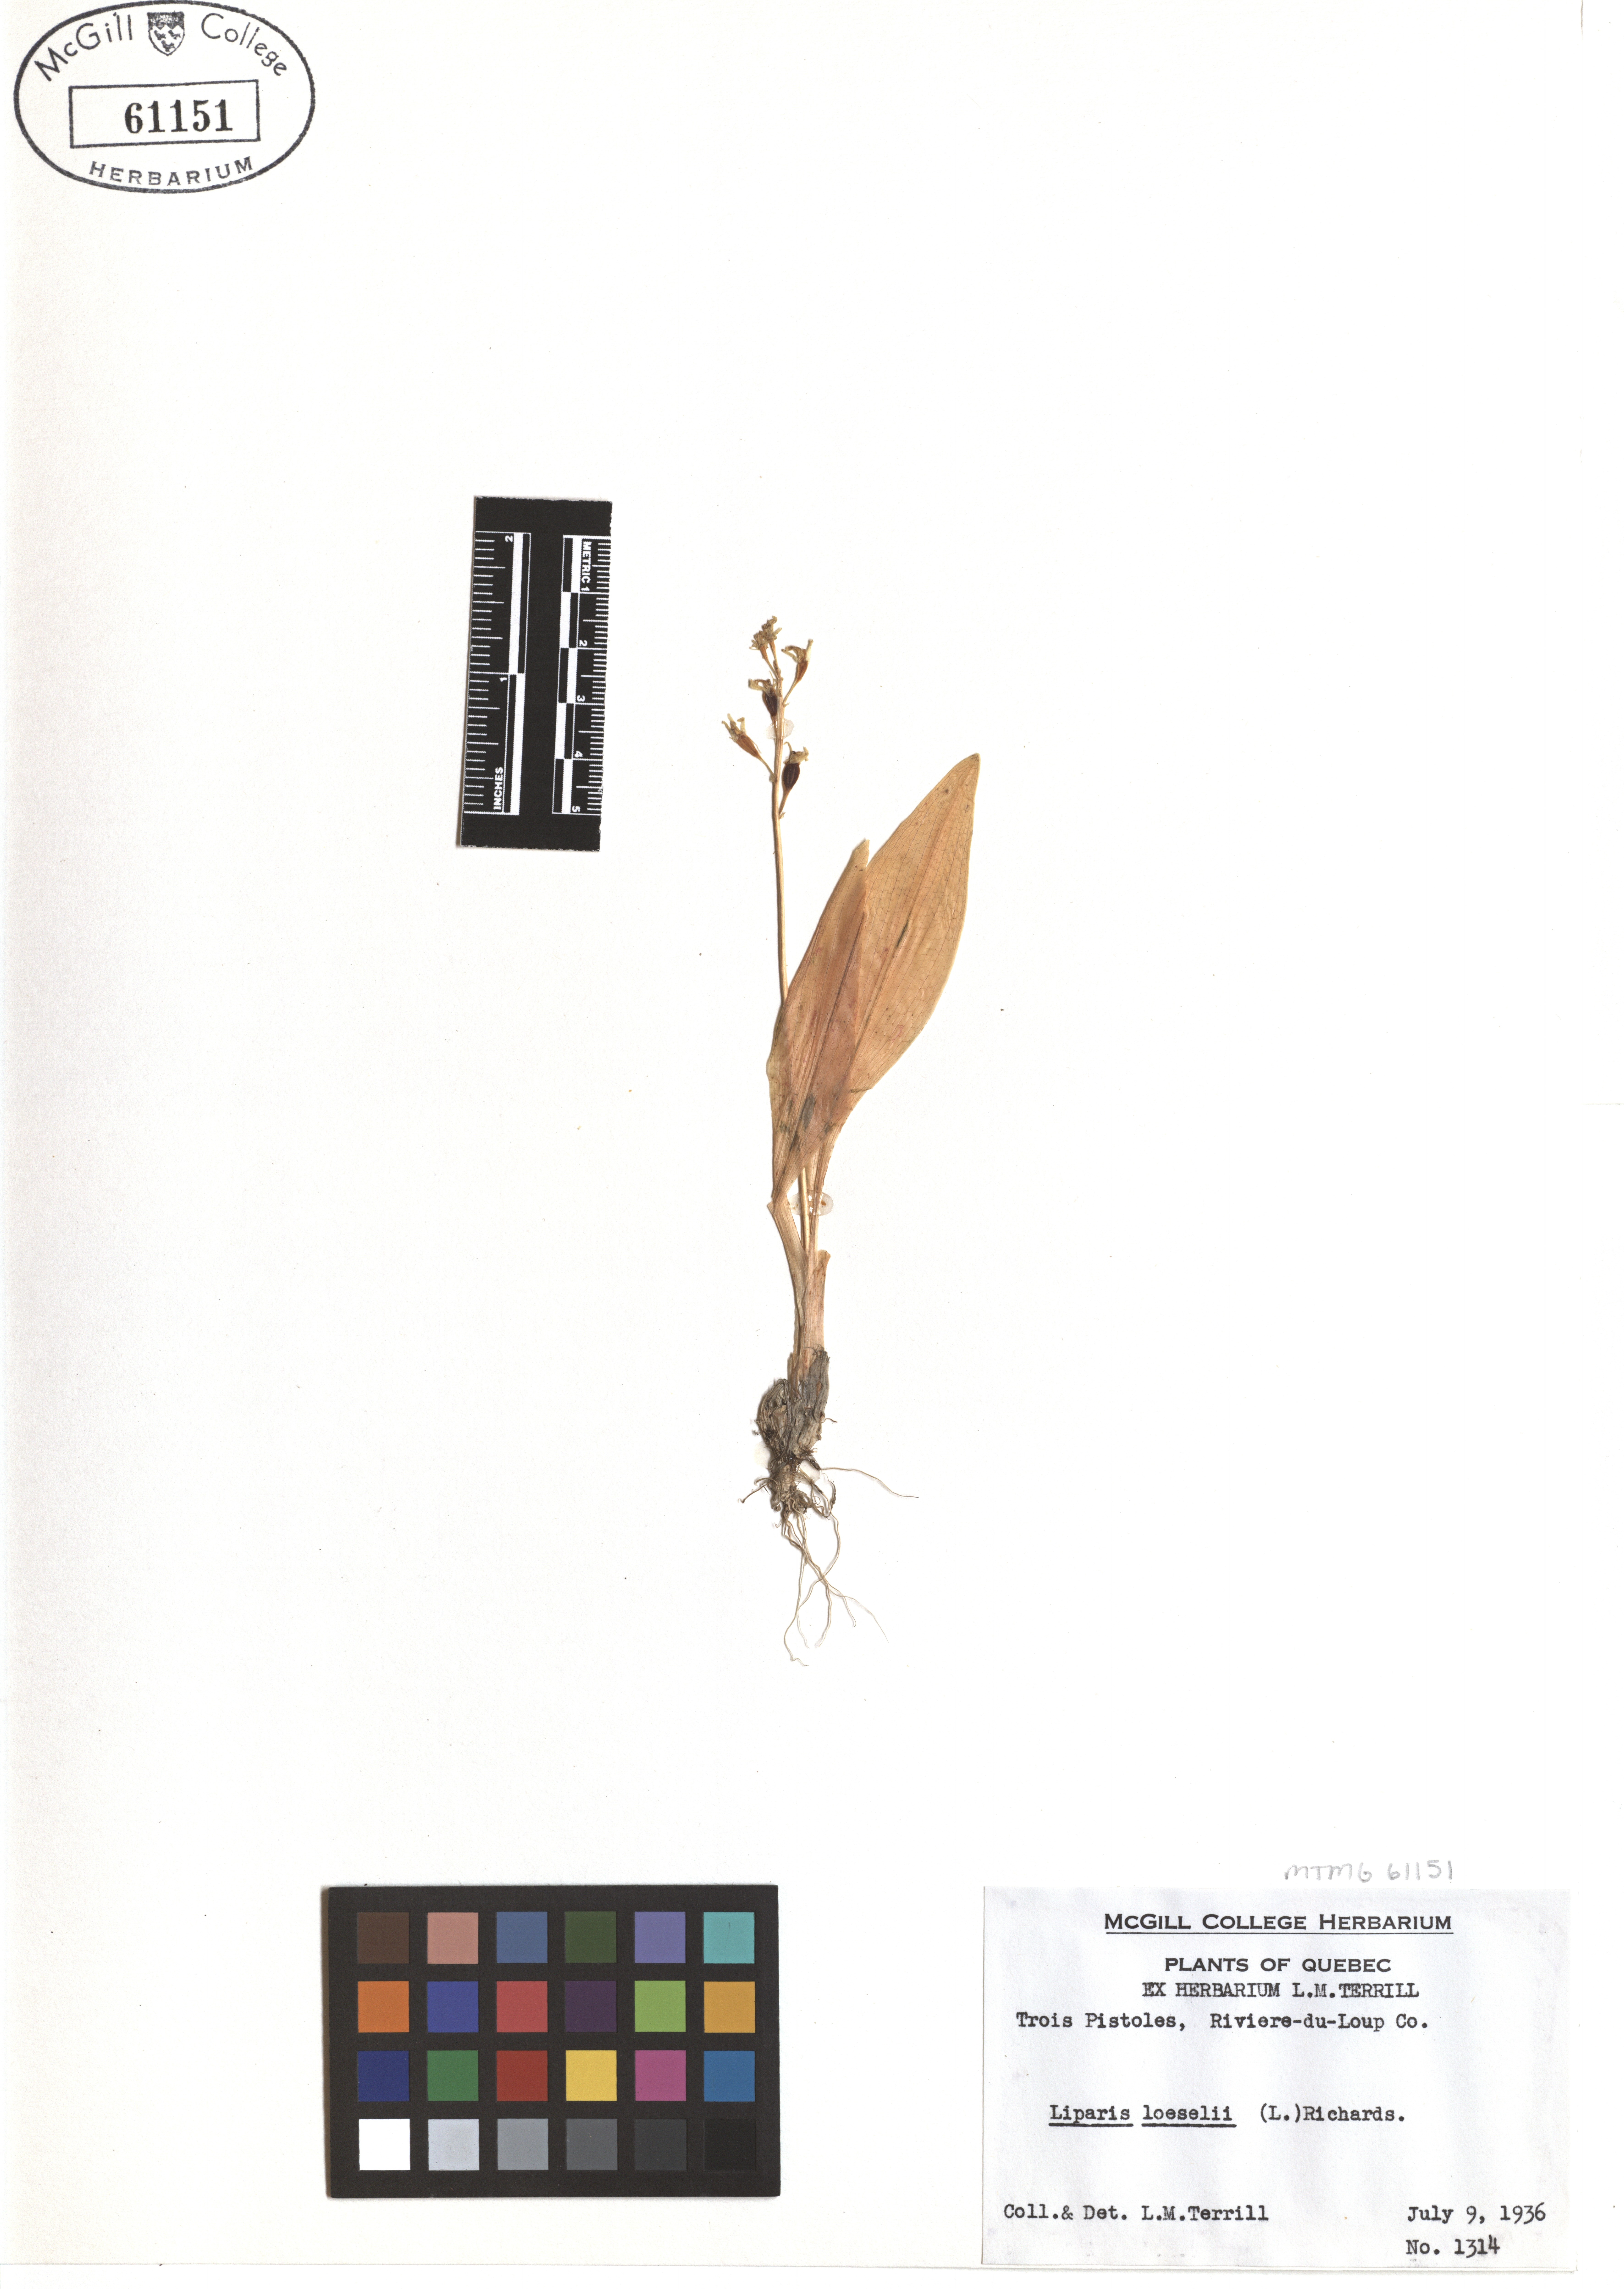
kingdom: Animalia
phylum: Arthropoda
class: Insecta
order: Coleoptera
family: Curculionidae
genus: Liparis
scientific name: Liparis loeselii
